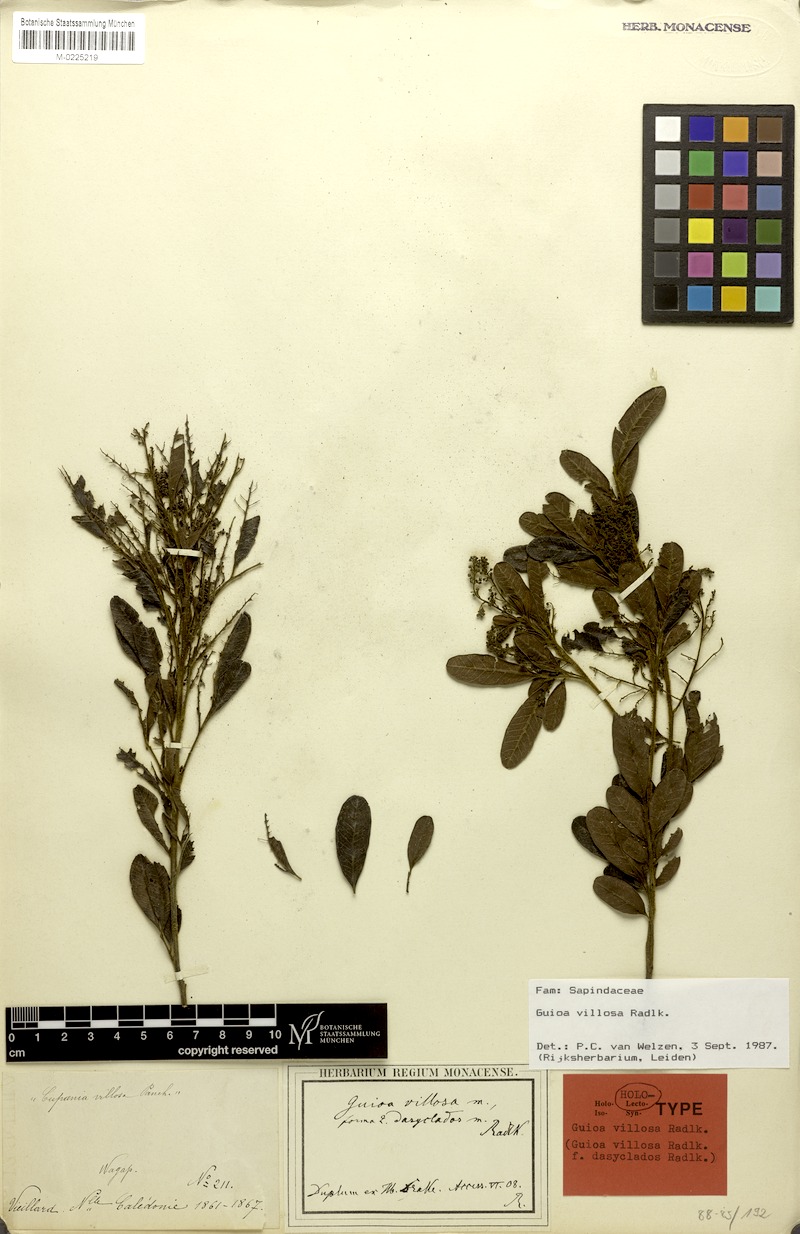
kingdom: Plantae
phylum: Tracheophyta
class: Magnoliopsida
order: Sapindales
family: Sapindaceae
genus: Guioa
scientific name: Guioa villosa
